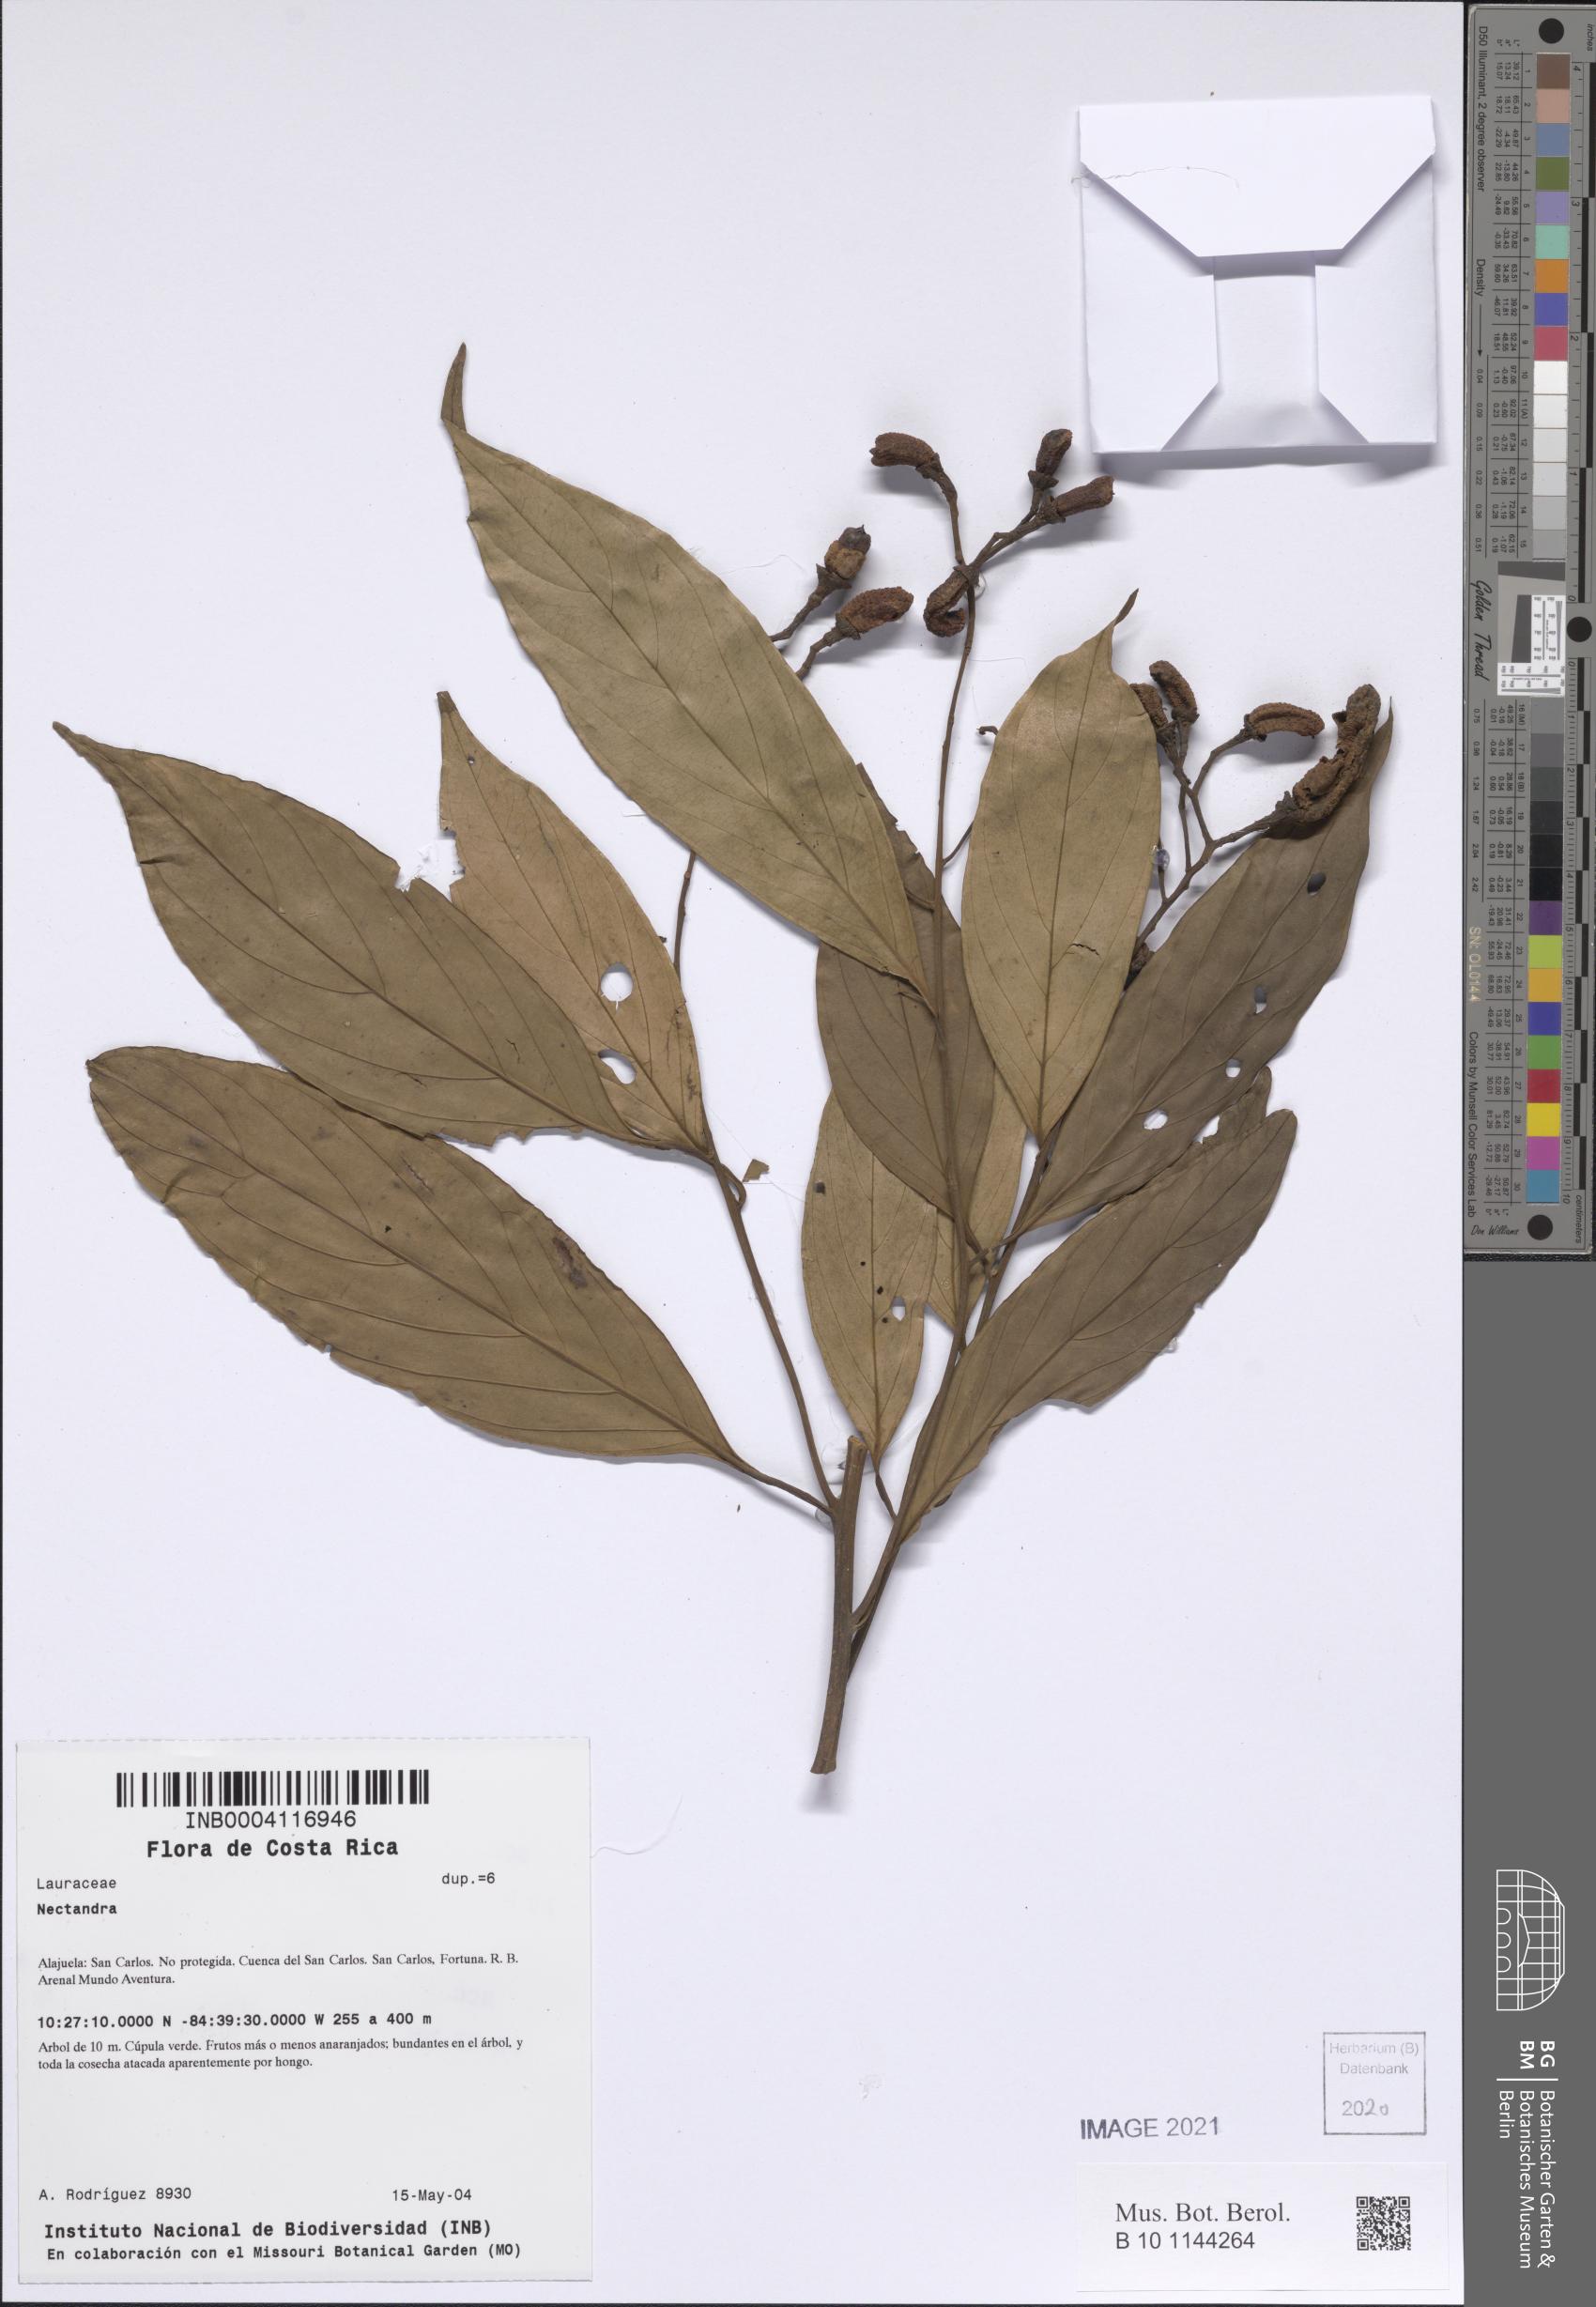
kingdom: Plantae
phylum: Tracheophyta
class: Magnoliopsida
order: Laurales
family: Lauraceae
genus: Nectandra
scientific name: Nectandra
